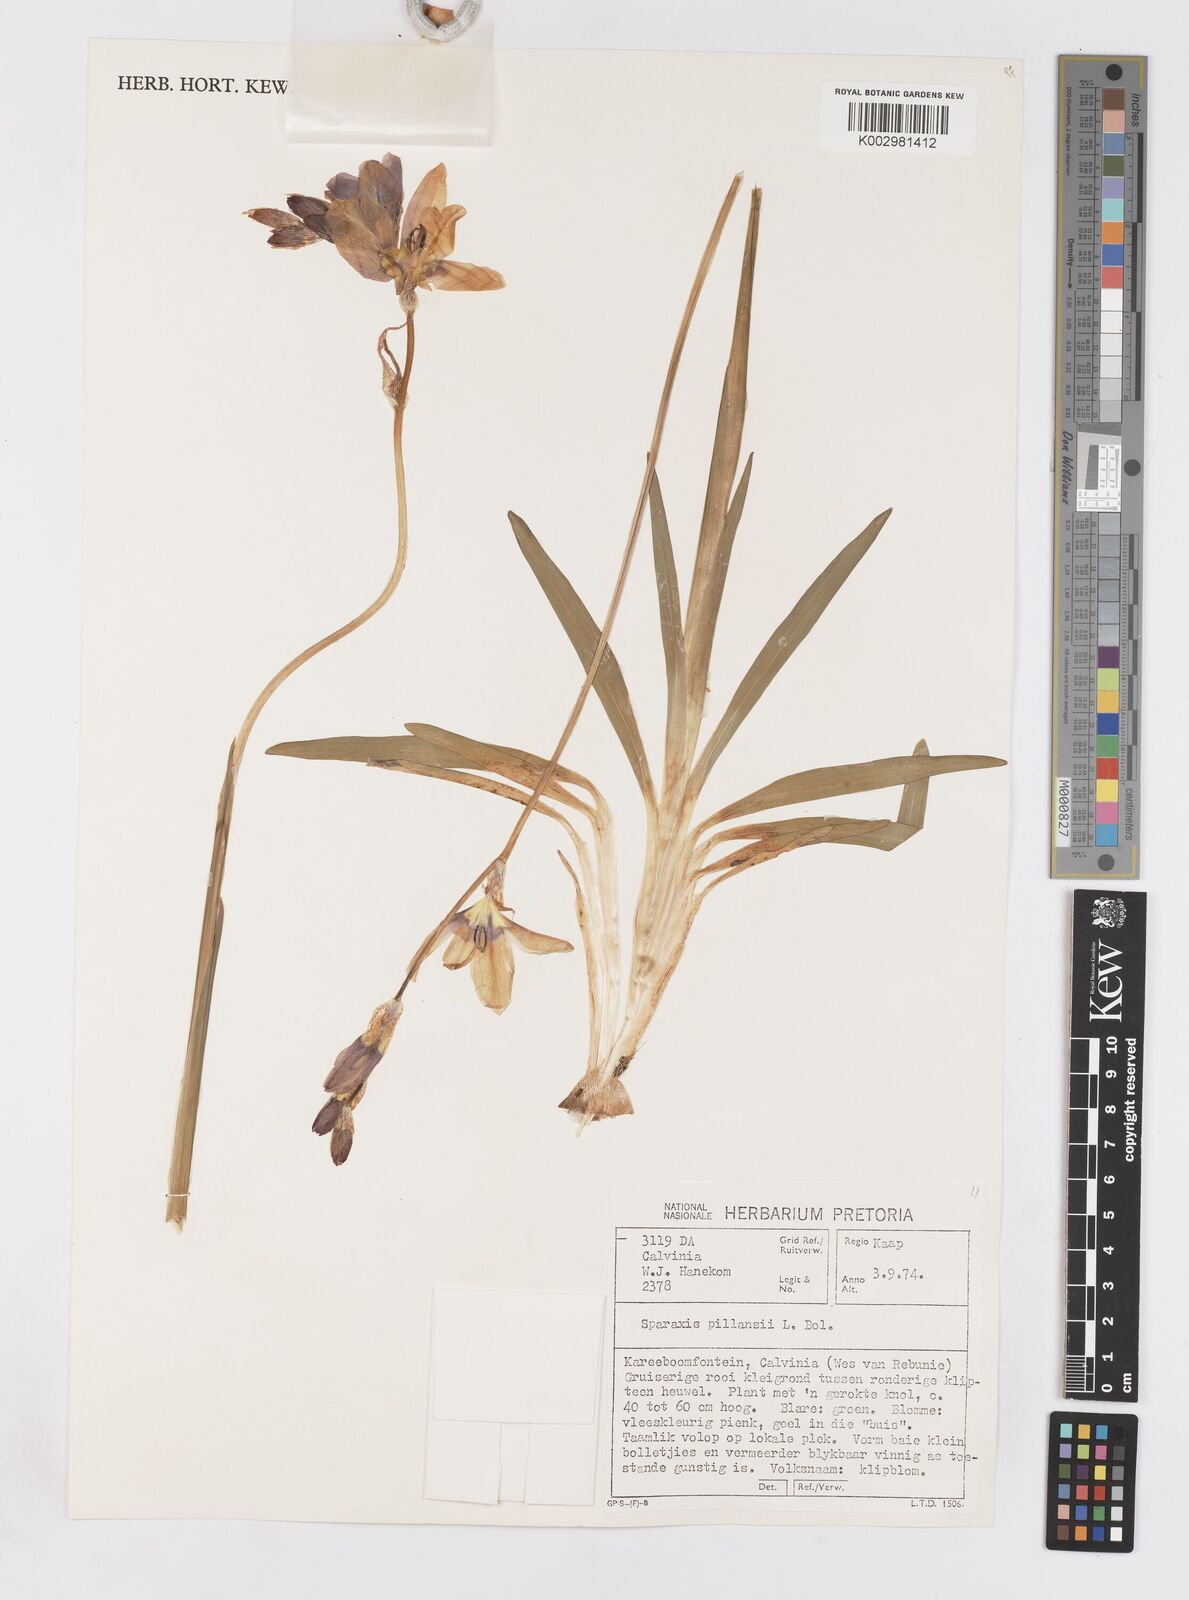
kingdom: Plantae
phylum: Tracheophyta
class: Liliopsida
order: Asparagales
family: Iridaceae
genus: Sparaxis
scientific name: Sparaxis pillansii
